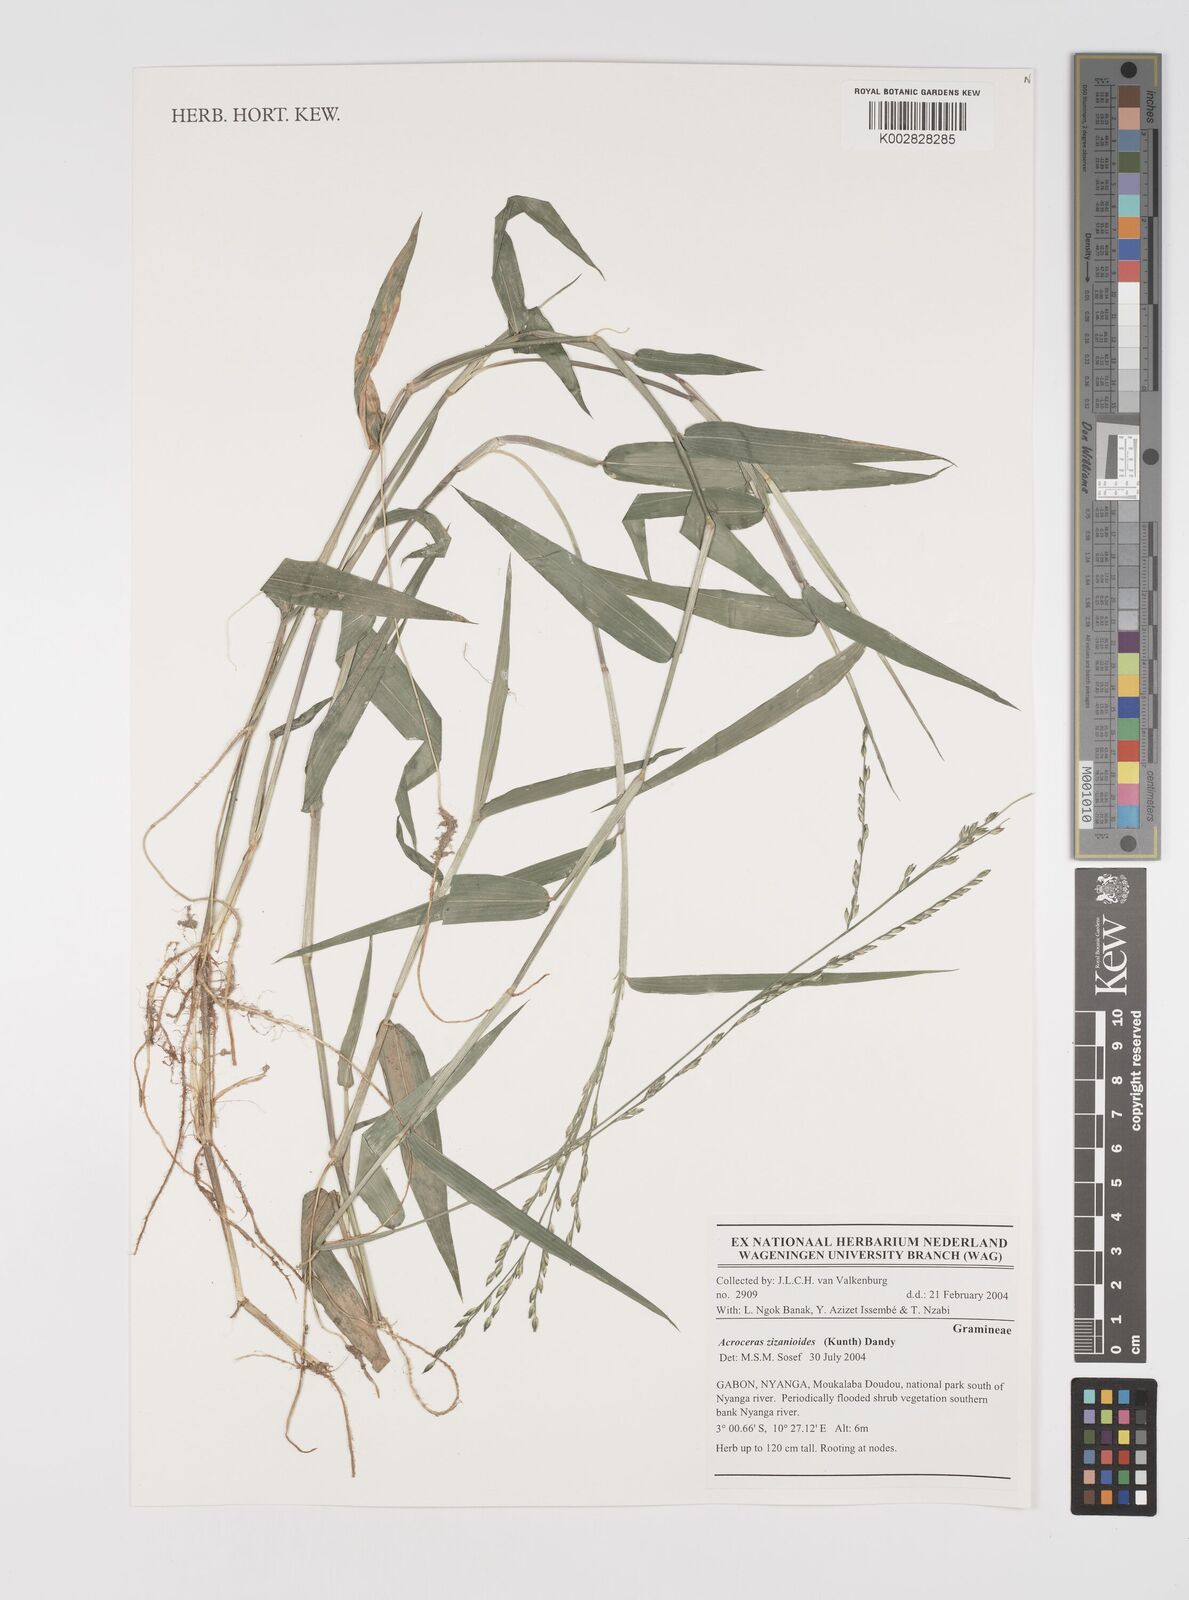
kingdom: Plantae
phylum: Tracheophyta
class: Liliopsida
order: Poales
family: Poaceae
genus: Acroceras
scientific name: Acroceras zizanioides
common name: Oat grass
